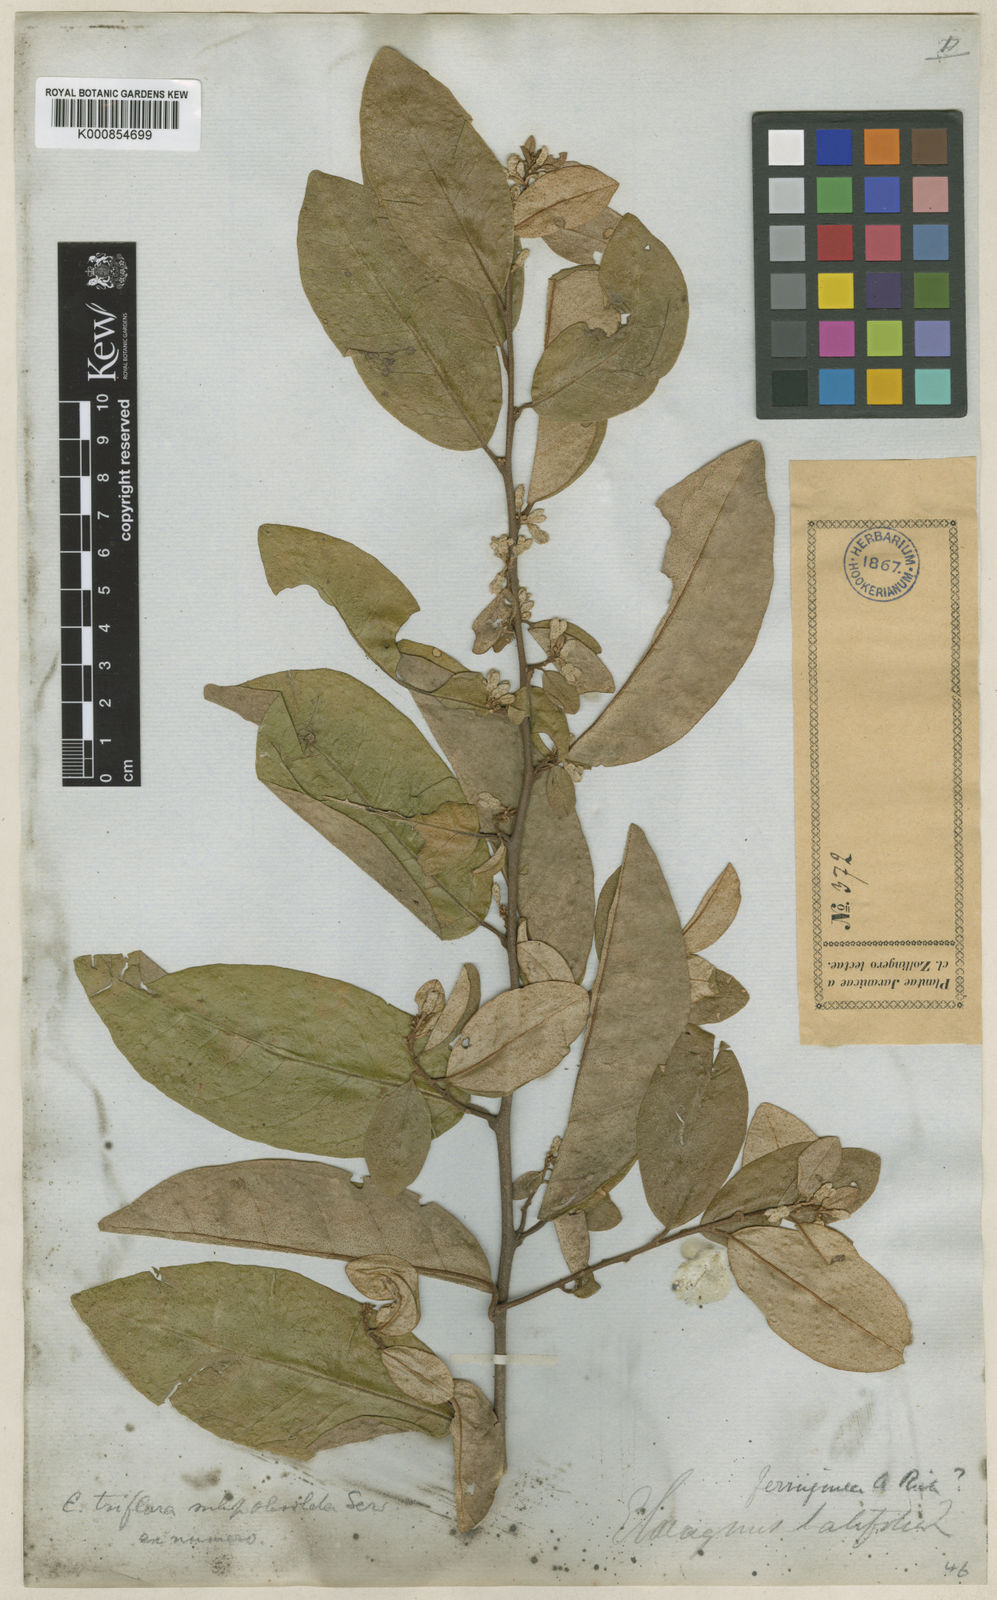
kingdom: Plantae
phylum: Tracheophyta
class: Magnoliopsida
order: Rosales
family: Elaeagnaceae
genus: Elaeagnus
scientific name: Elaeagnus triflora
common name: Millaa millaa-vine
